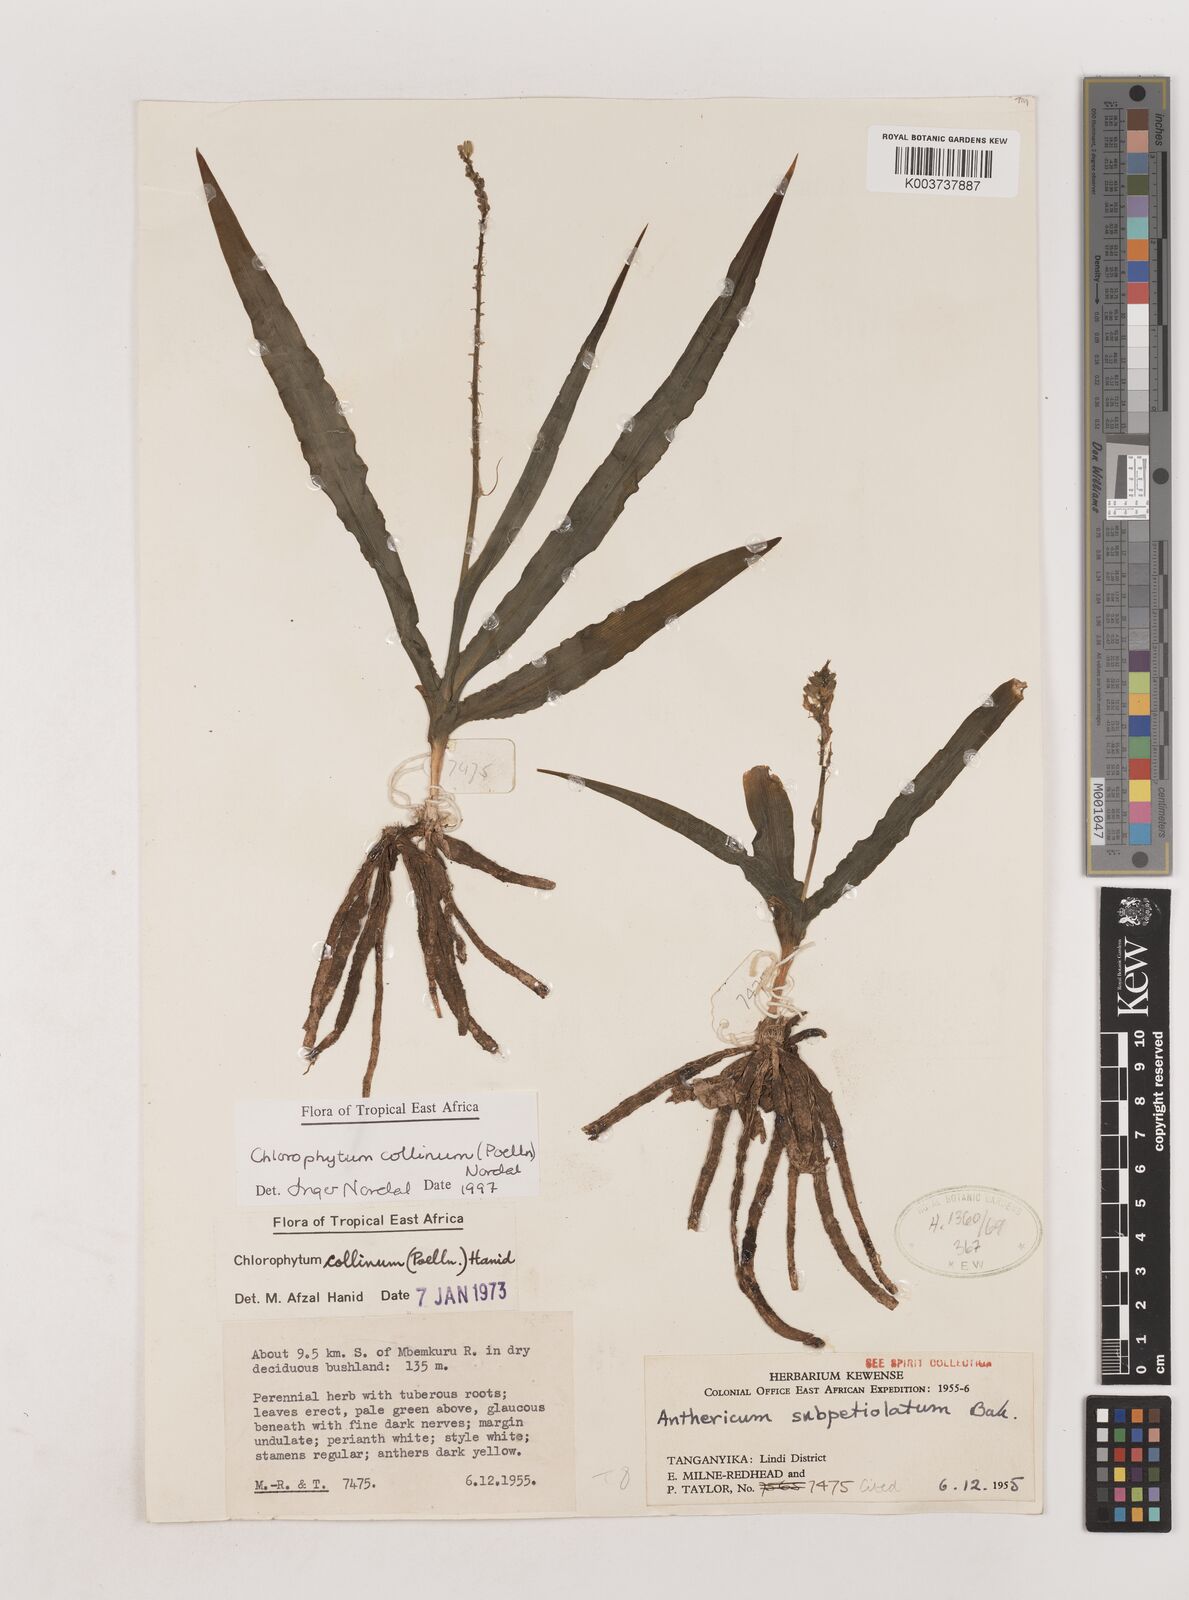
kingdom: Plantae
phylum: Tracheophyta
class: Liliopsida
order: Asparagales
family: Asparagaceae
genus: Chlorophytum
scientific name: Chlorophytum collinum
